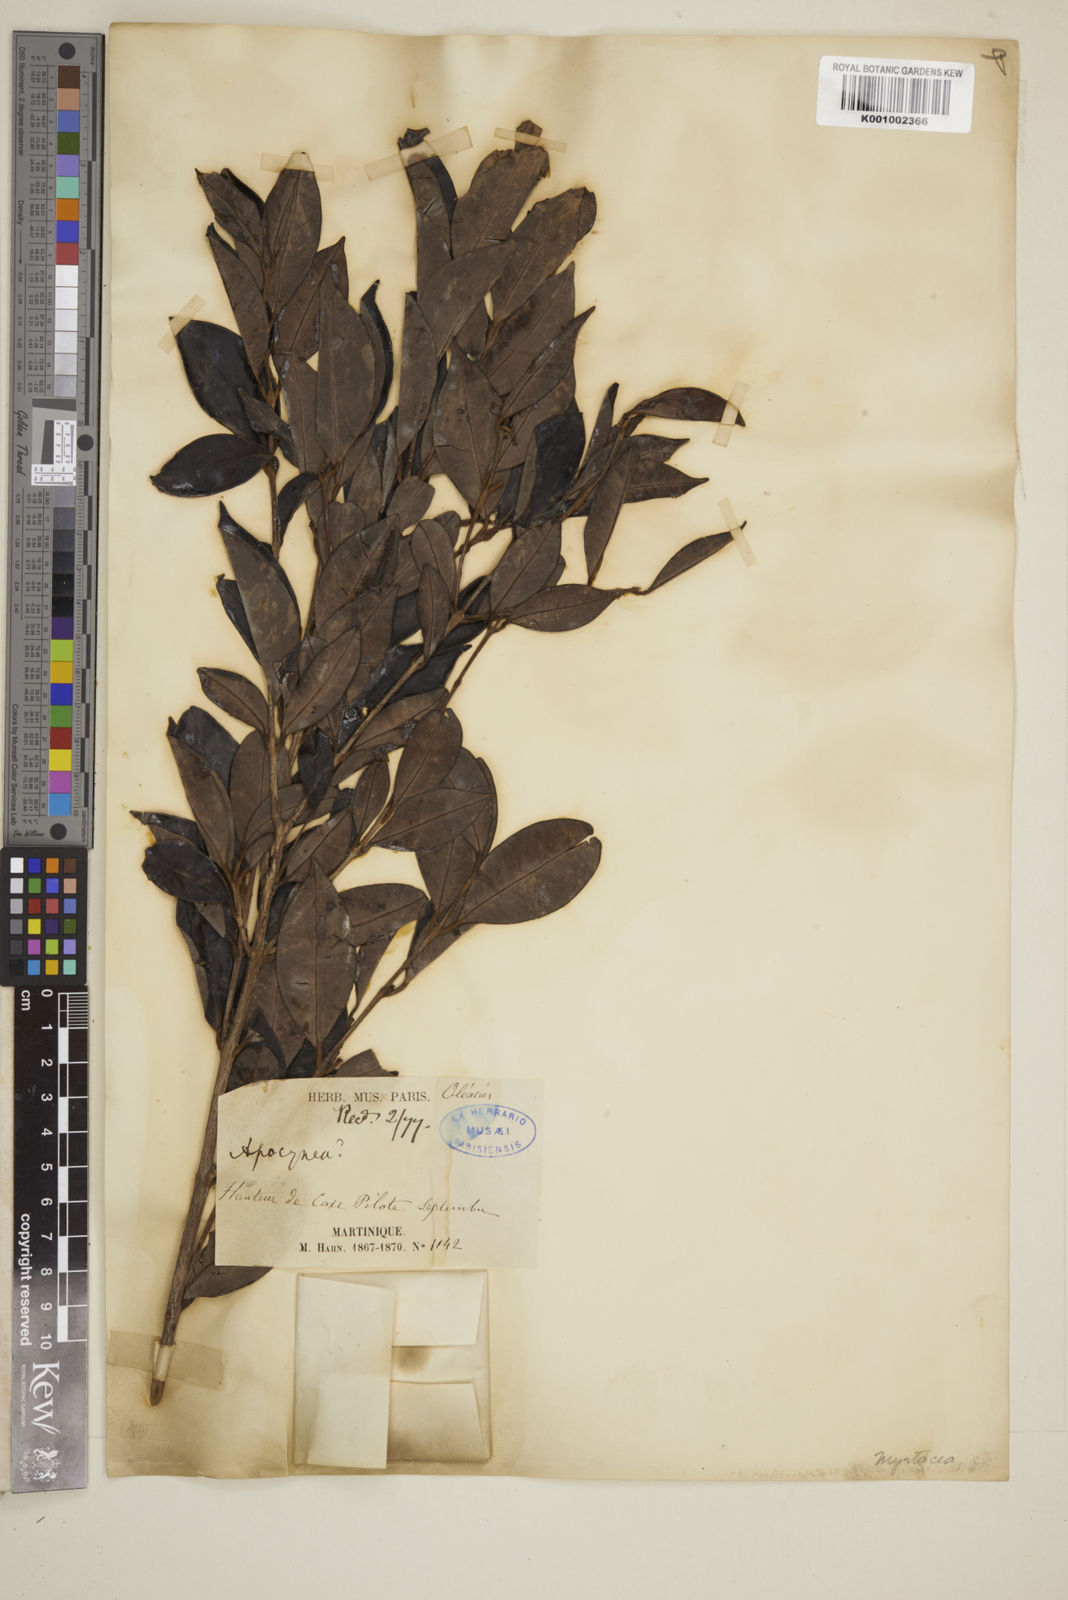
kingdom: Plantae
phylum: Tracheophyta
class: Magnoliopsida
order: Myrtales
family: Myrtaceae
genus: Eugenia
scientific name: Eugenia albicans
